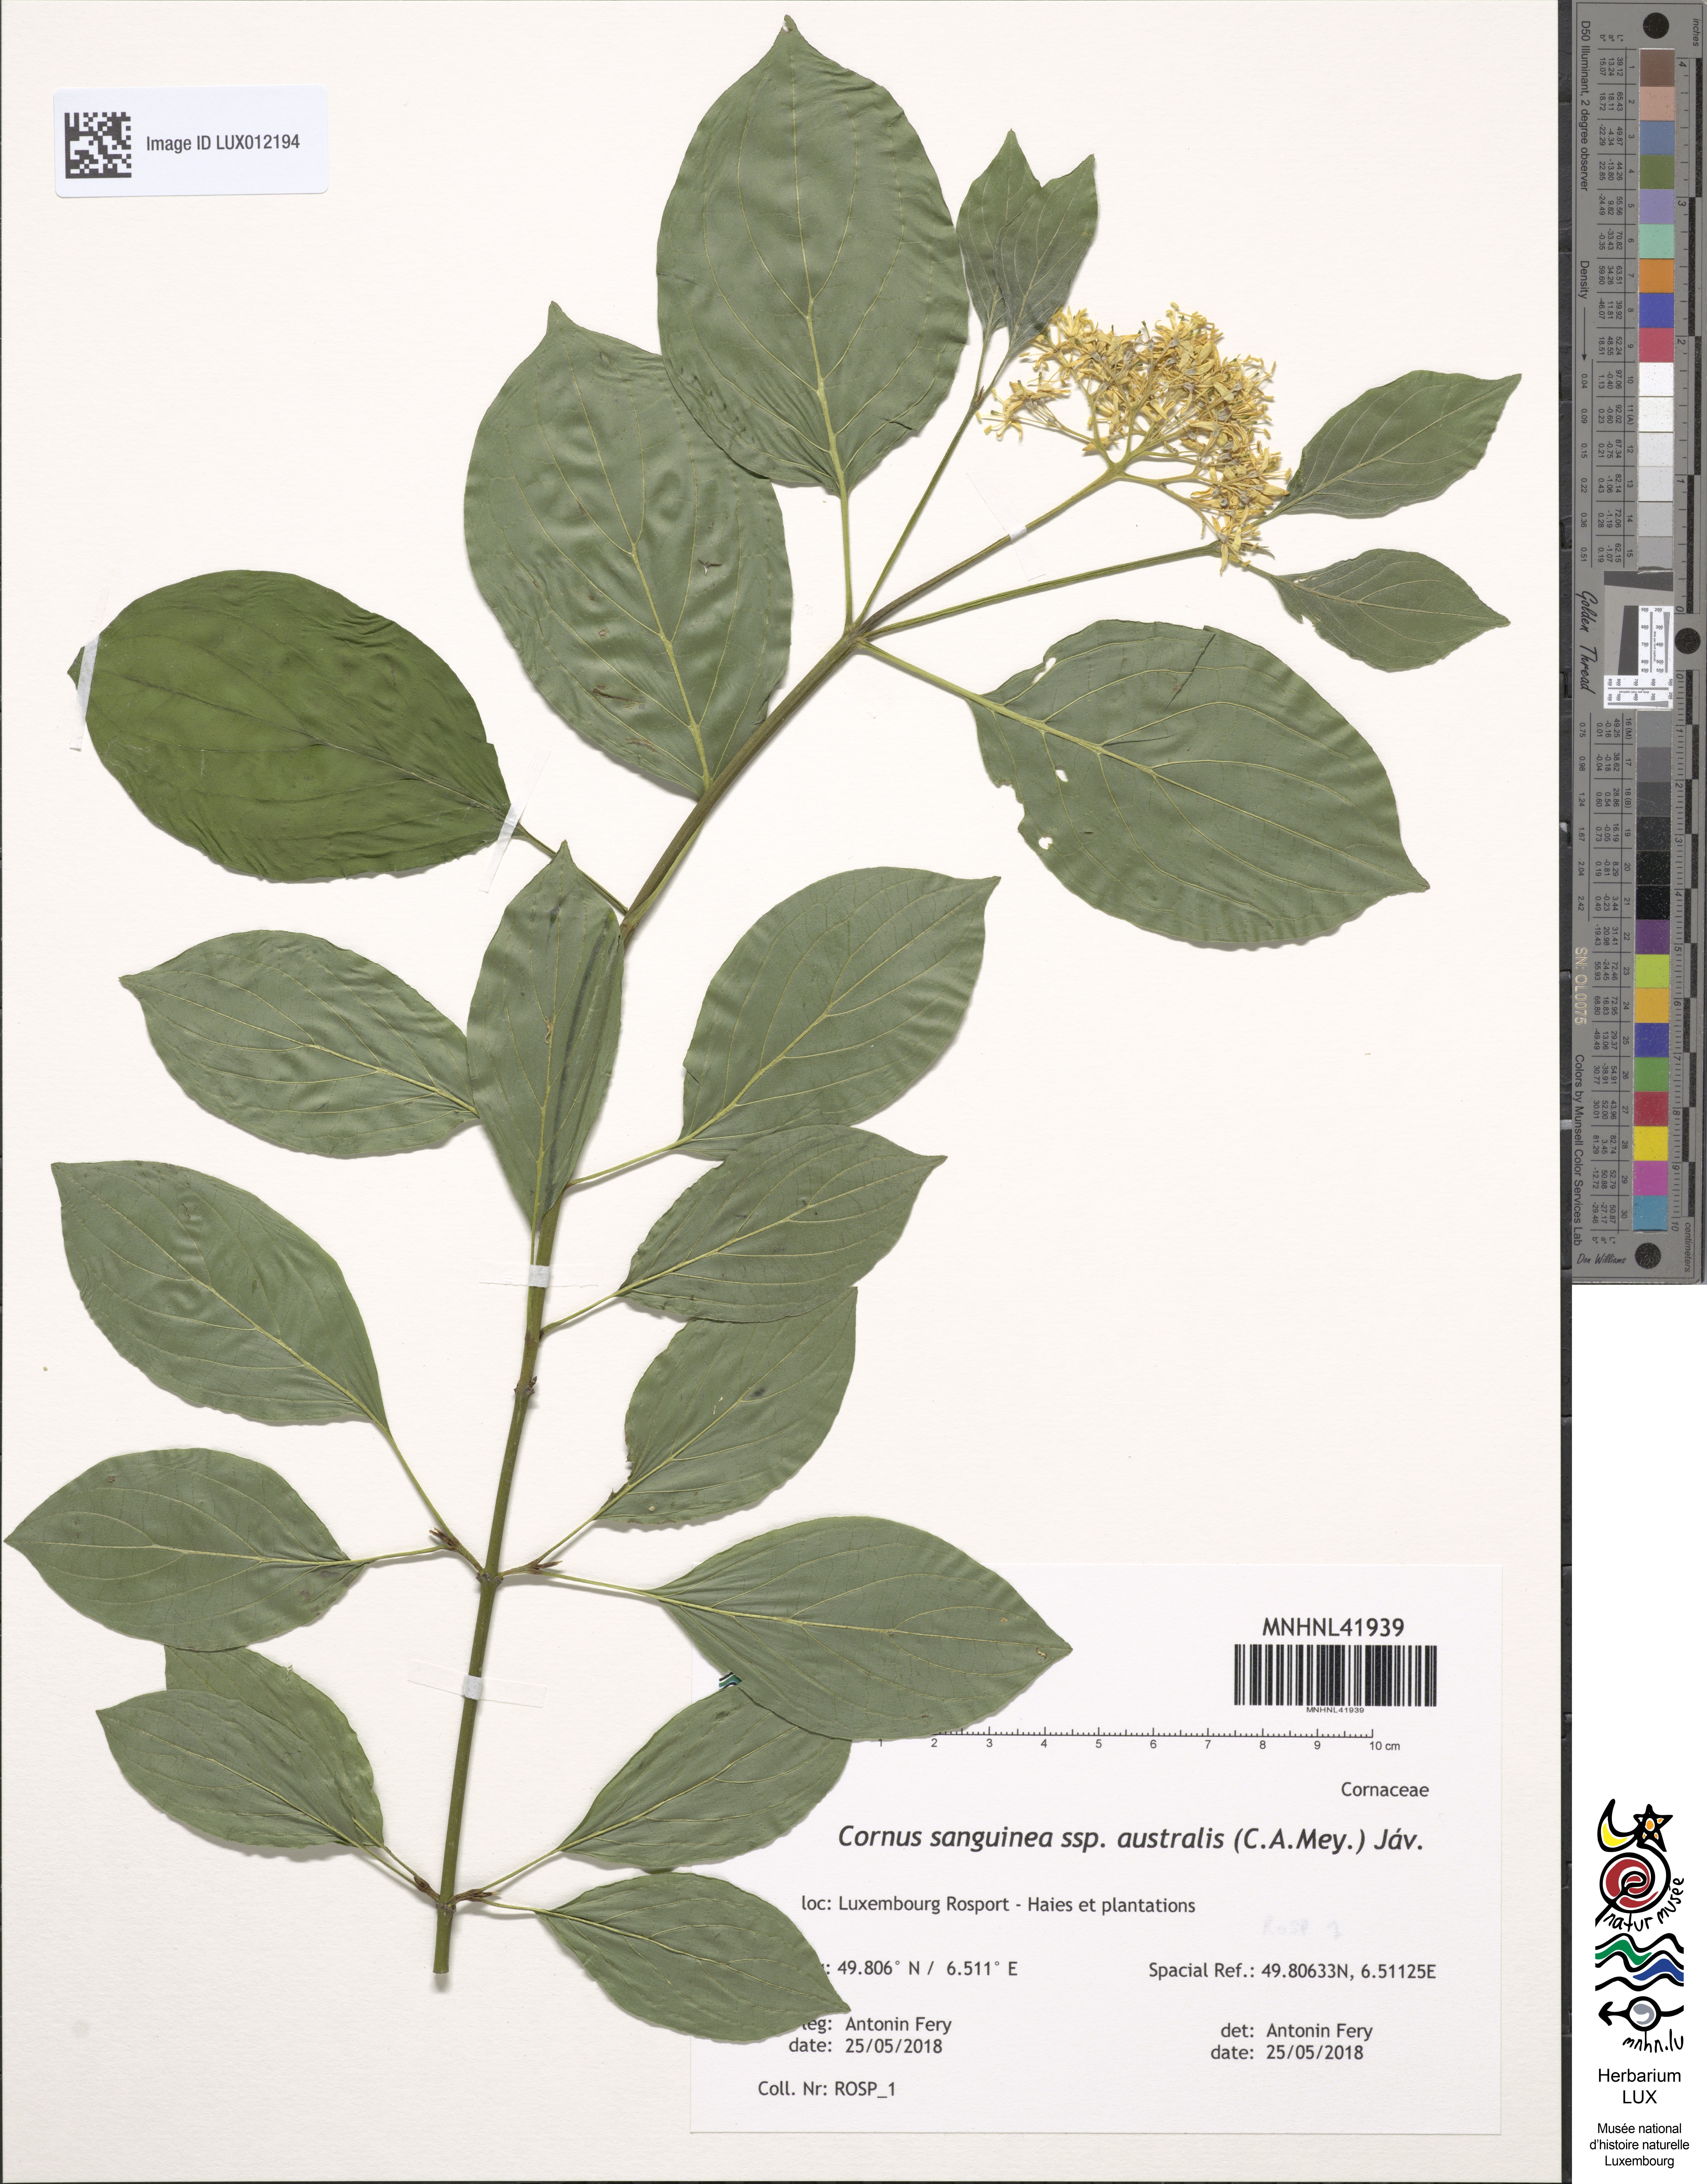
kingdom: Plantae
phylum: Tracheophyta
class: Magnoliopsida
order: Cornales
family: Cornaceae
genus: Cornus
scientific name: Cornus sanguinea
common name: Dogwood
